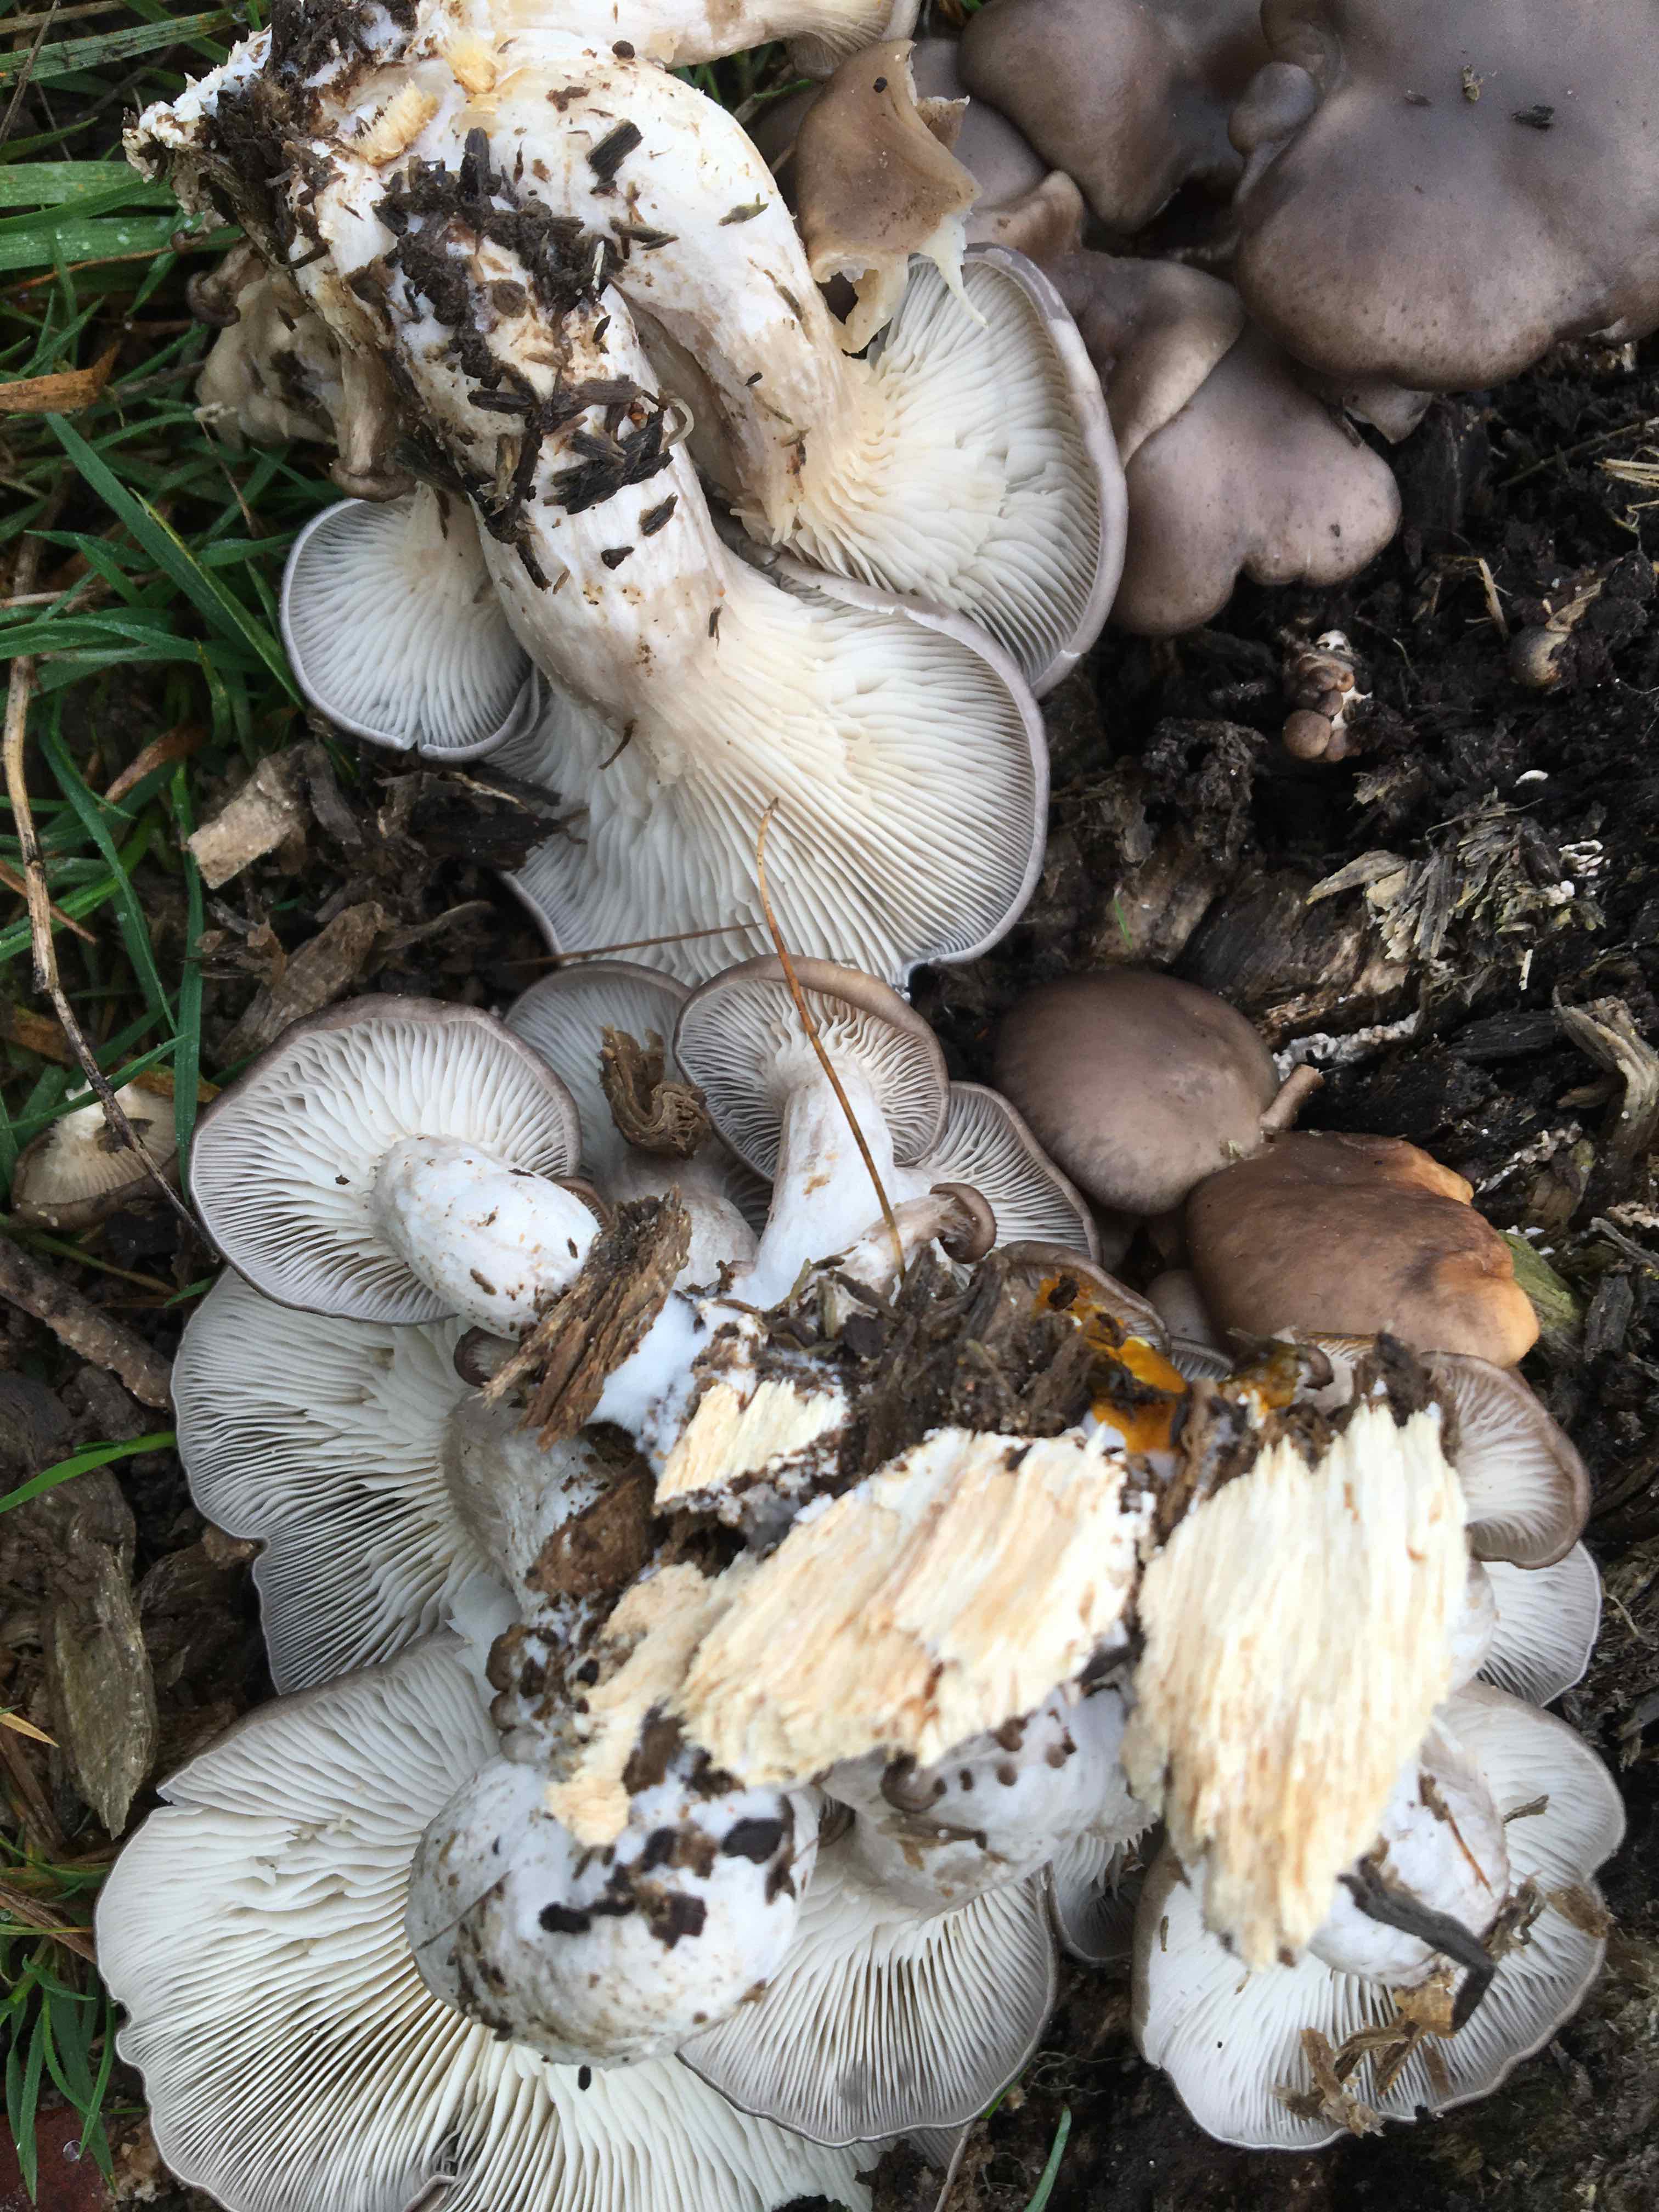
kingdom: Fungi
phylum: Basidiomycota
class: Agaricomycetes
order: Agaricales
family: Pleurotaceae
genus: Pleurotus
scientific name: Pleurotus ostreatus
